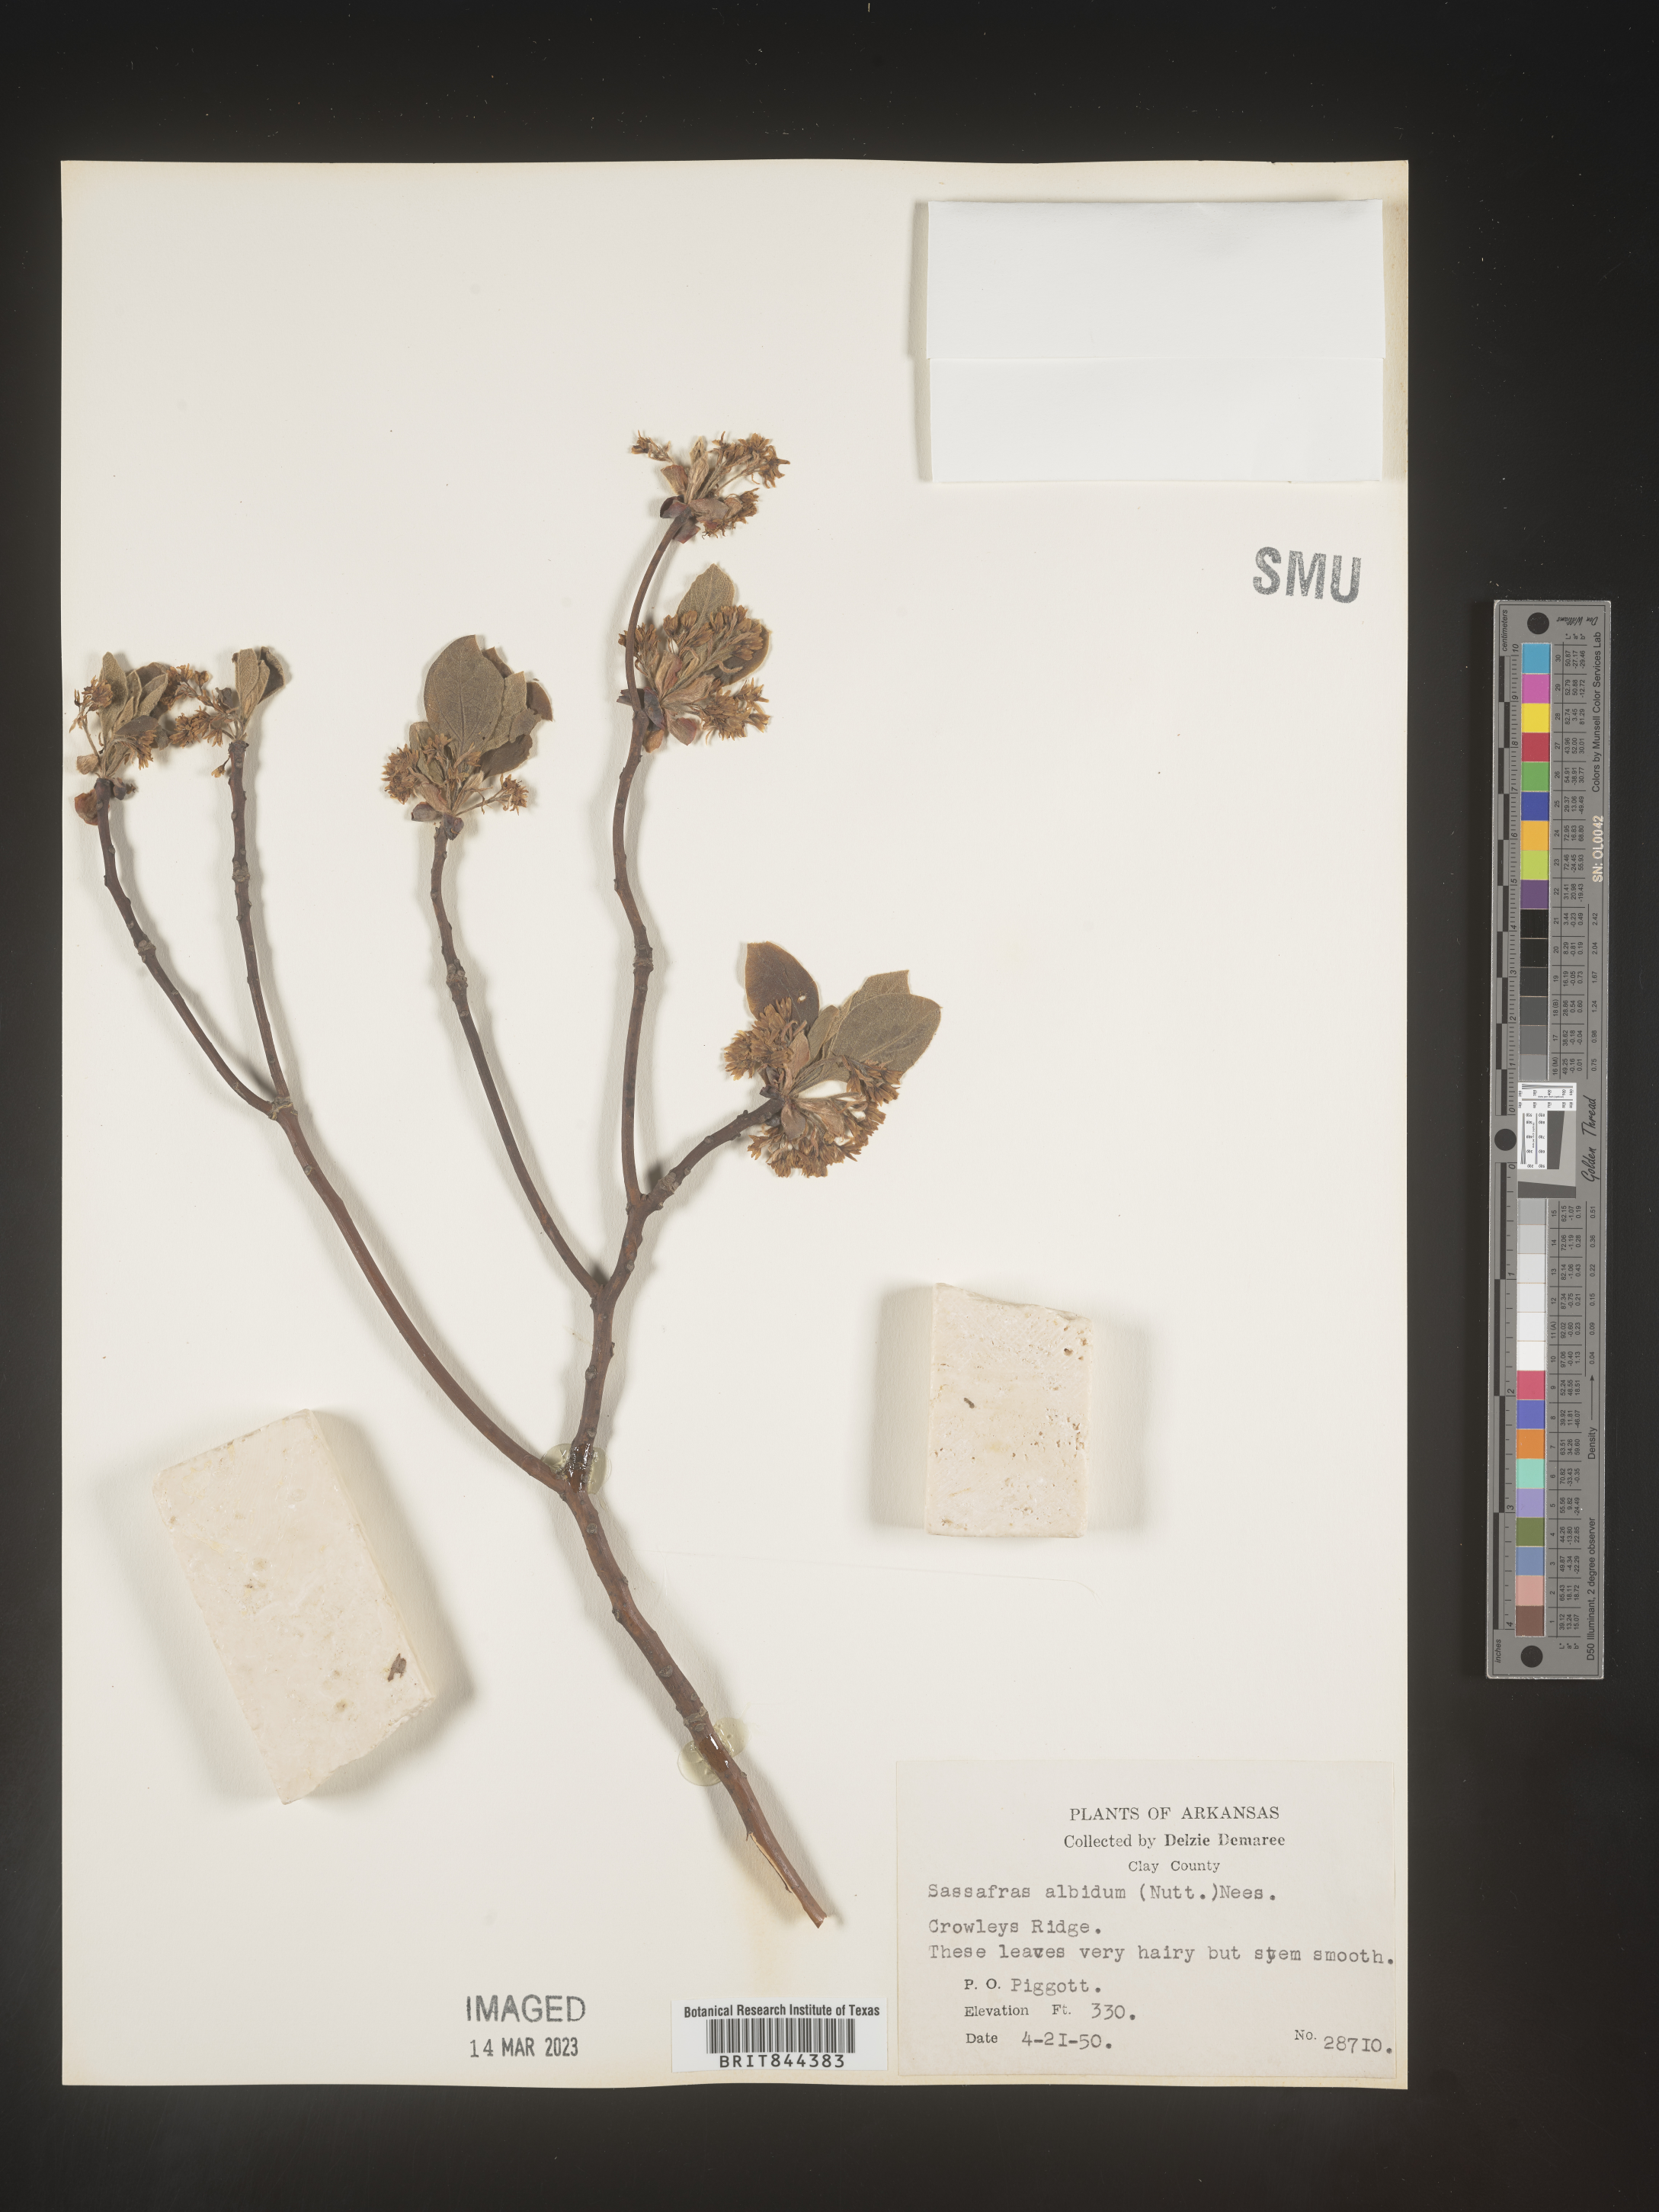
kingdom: Plantae
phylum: Tracheophyta
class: Magnoliopsida
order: Laurales
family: Lauraceae
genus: Sassafras
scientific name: Sassafras
